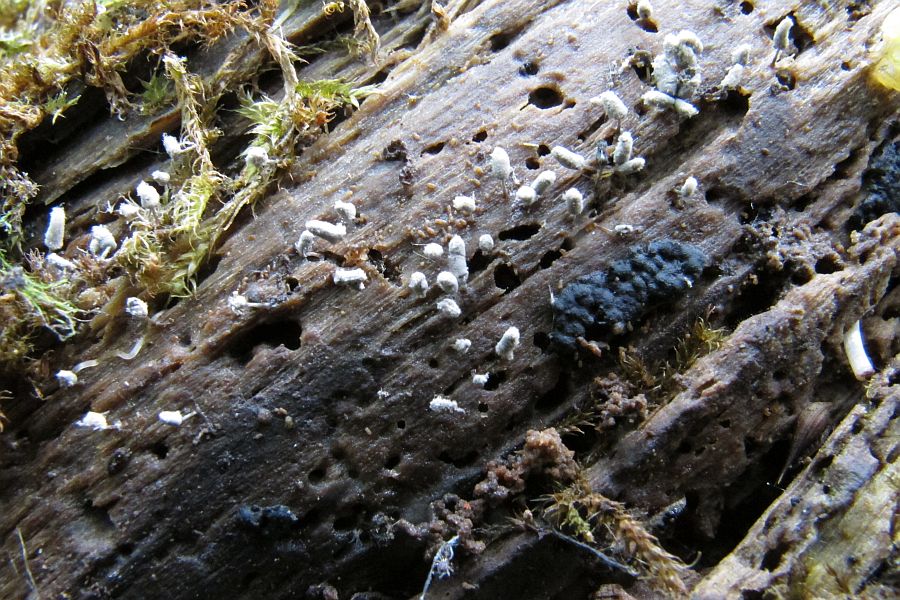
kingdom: Protozoa
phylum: Mycetozoa
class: Myxomycetes
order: Trichiales
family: Arcyriaceae
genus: Arcyria
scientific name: Arcyria cinerea
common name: White carnival candy slime mold
